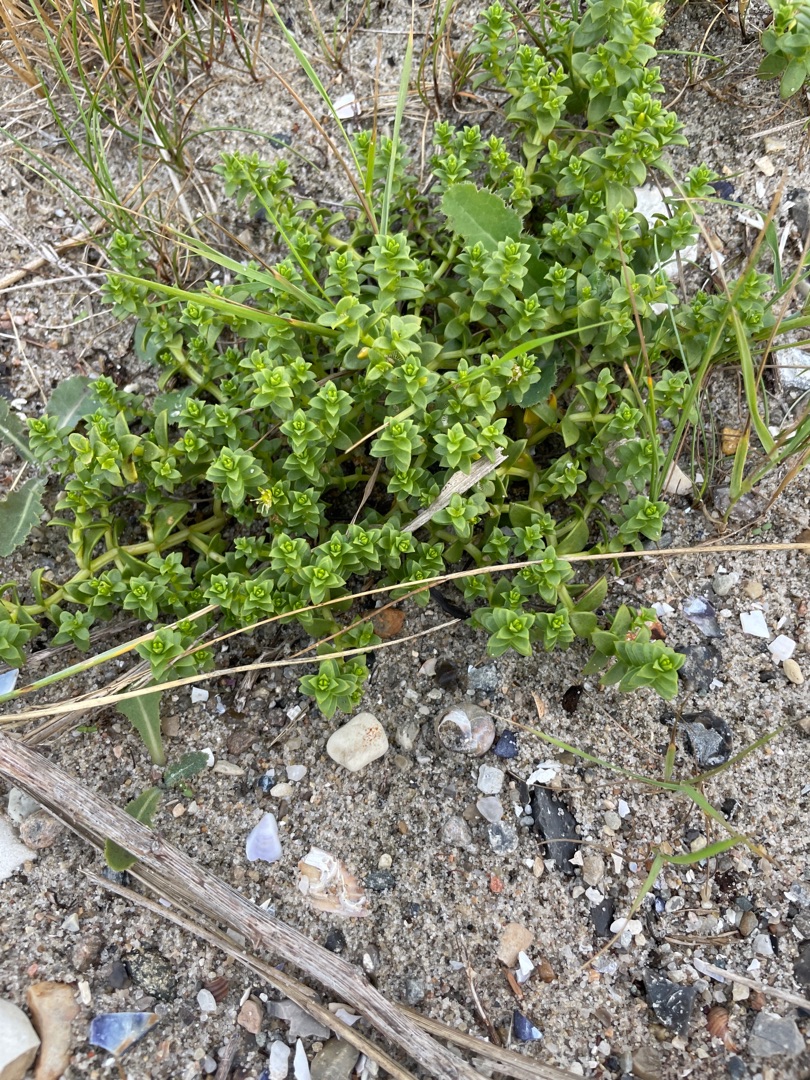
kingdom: Plantae
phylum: Tracheophyta
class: Magnoliopsida
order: Caryophyllales
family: Caryophyllaceae
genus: Honckenya
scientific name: Honckenya peploides
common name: Strandarve
